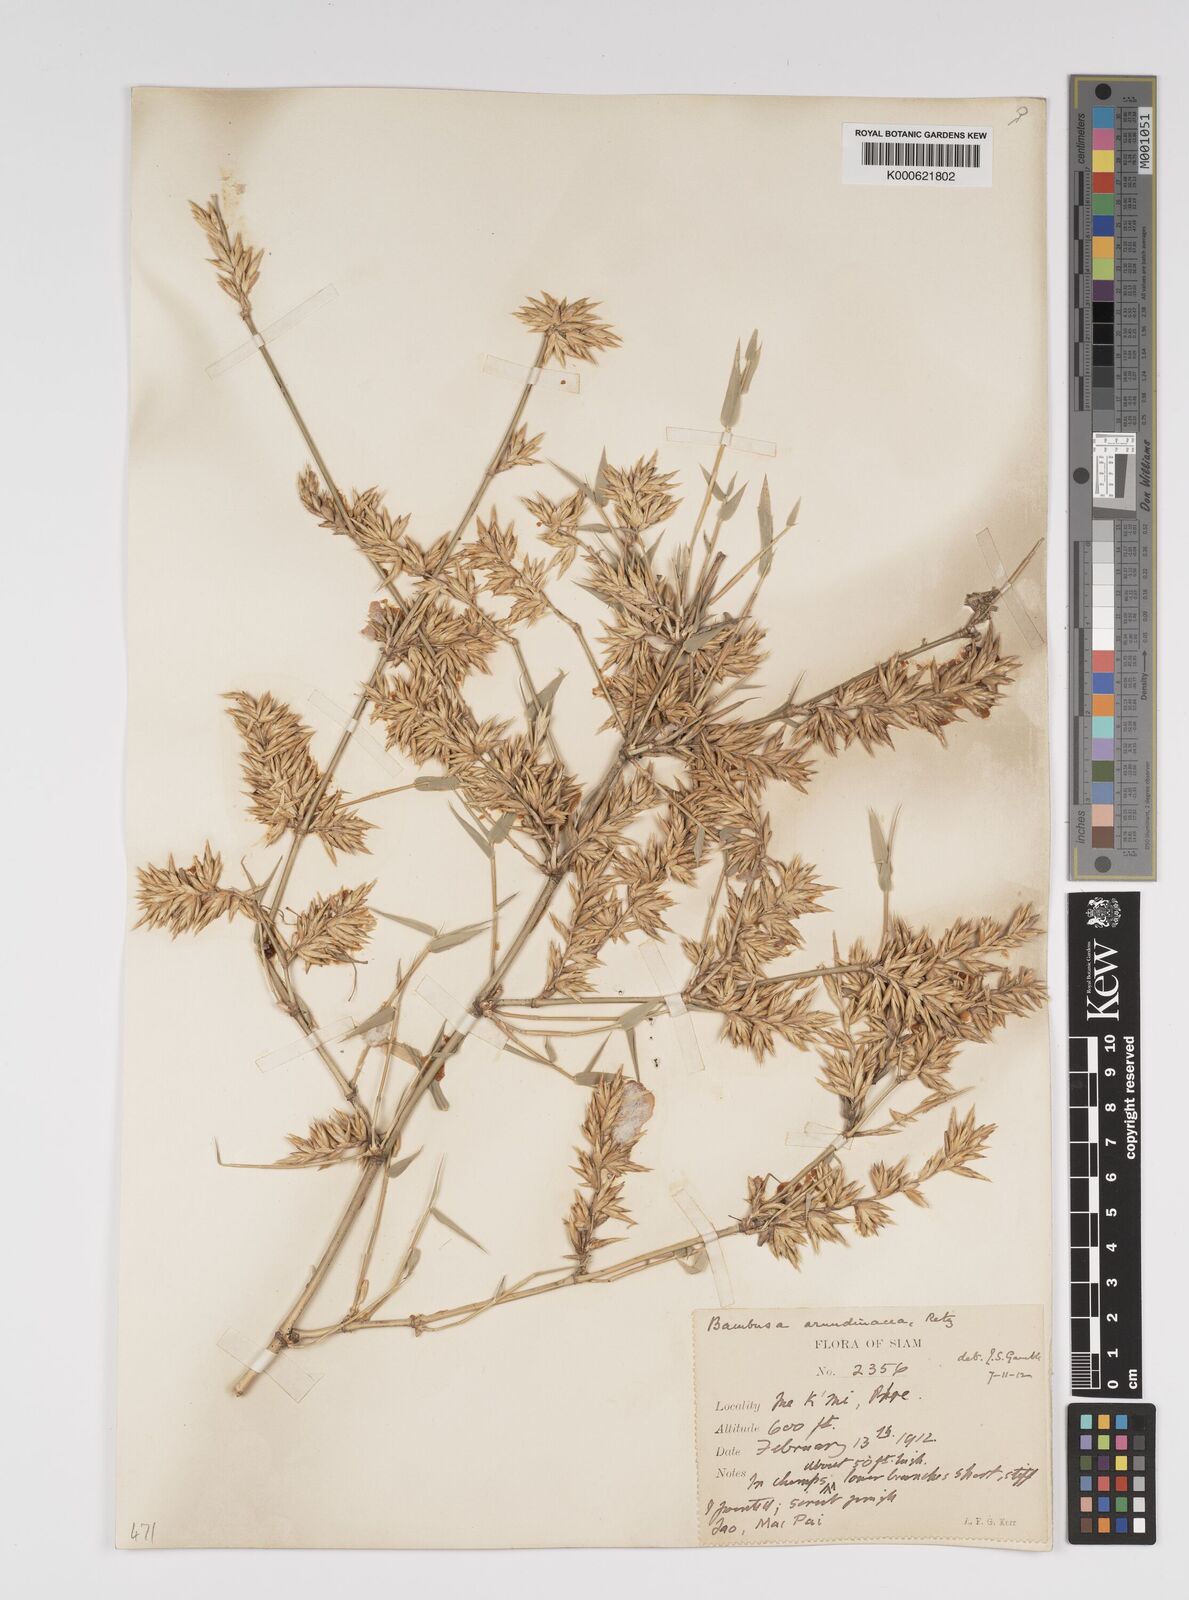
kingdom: Plantae
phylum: Tracheophyta
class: Liliopsida
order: Poales
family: Poaceae
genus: Bambusa
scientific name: Bambusa bambos
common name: Indian thorny bamboo
